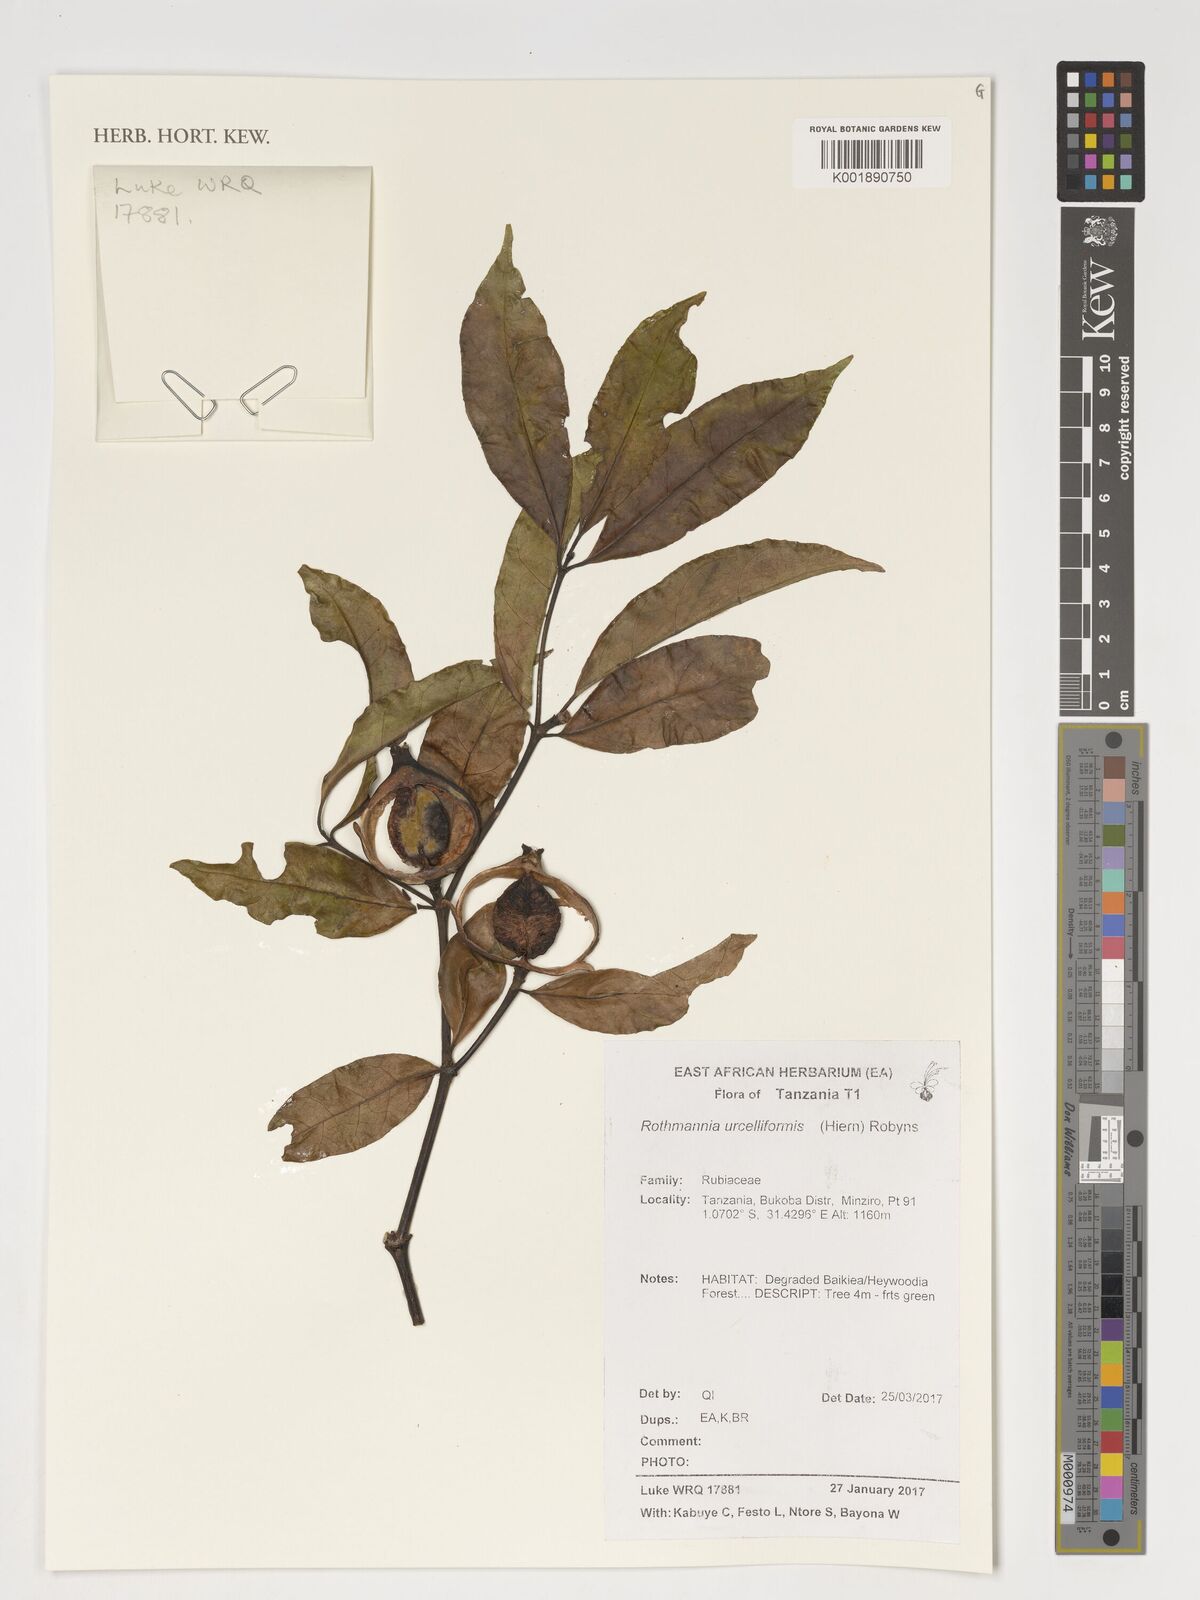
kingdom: Plantae
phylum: Tracheophyta
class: Magnoliopsida
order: Gentianales
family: Rubiaceae
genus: Rothmannia
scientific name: Rothmannia urcelliformis
